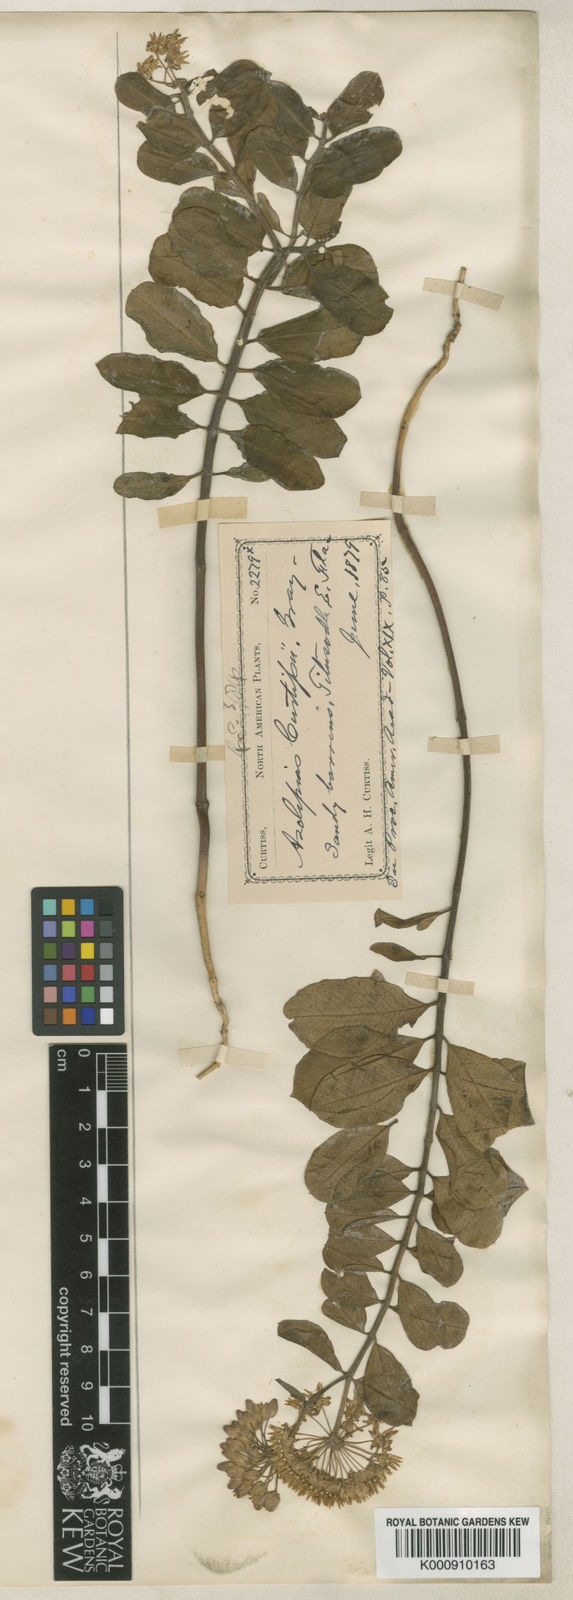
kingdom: Plantae
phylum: Tracheophyta
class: Magnoliopsida
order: Gentianales
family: Apocynaceae
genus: Asclepias
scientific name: Asclepias curtissii
